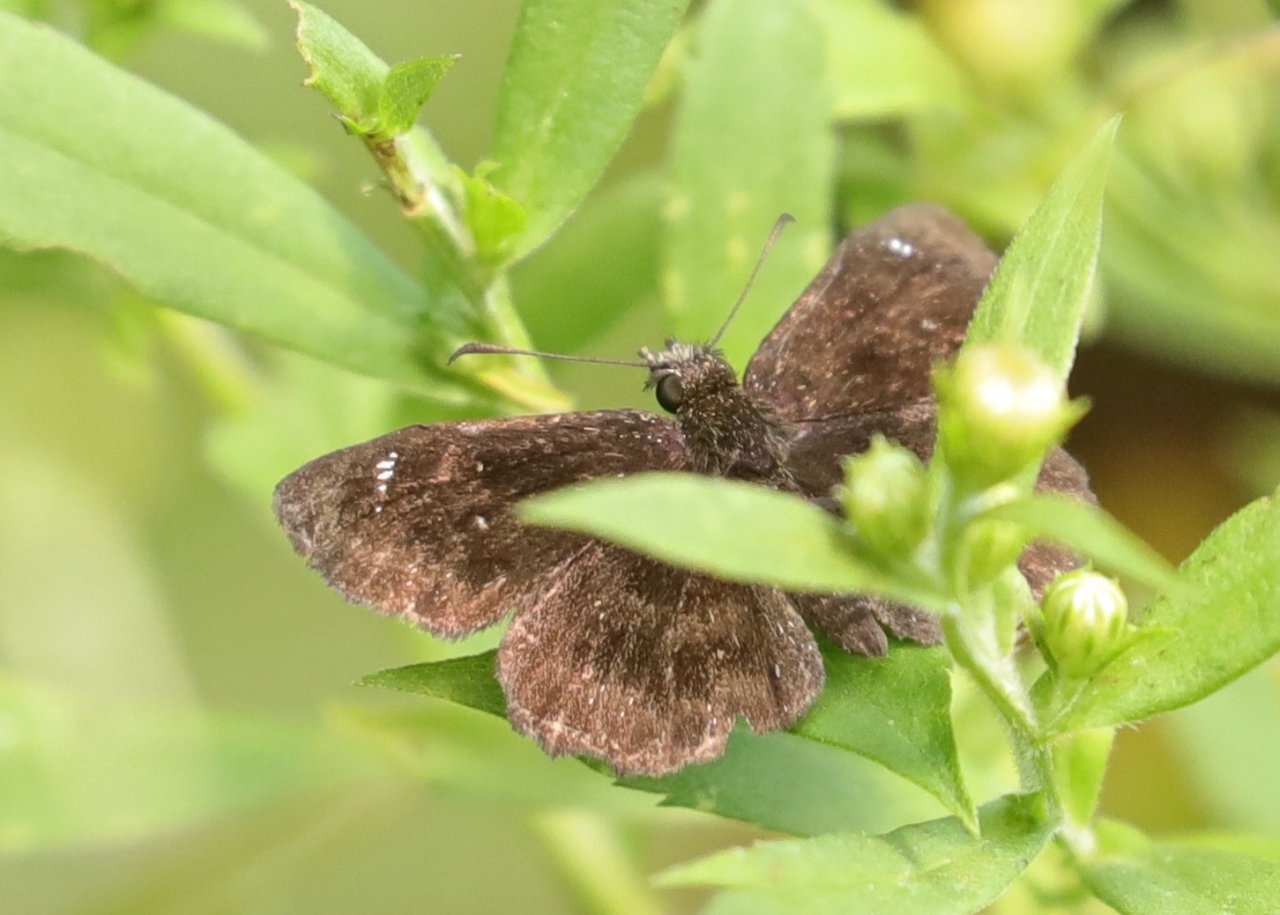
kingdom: Animalia
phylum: Arthropoda
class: Insecta
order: Lepidoptera
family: Hesperiidae
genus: Staphylus
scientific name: Staphylus mazans
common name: Hayhurst's Scallopwing
